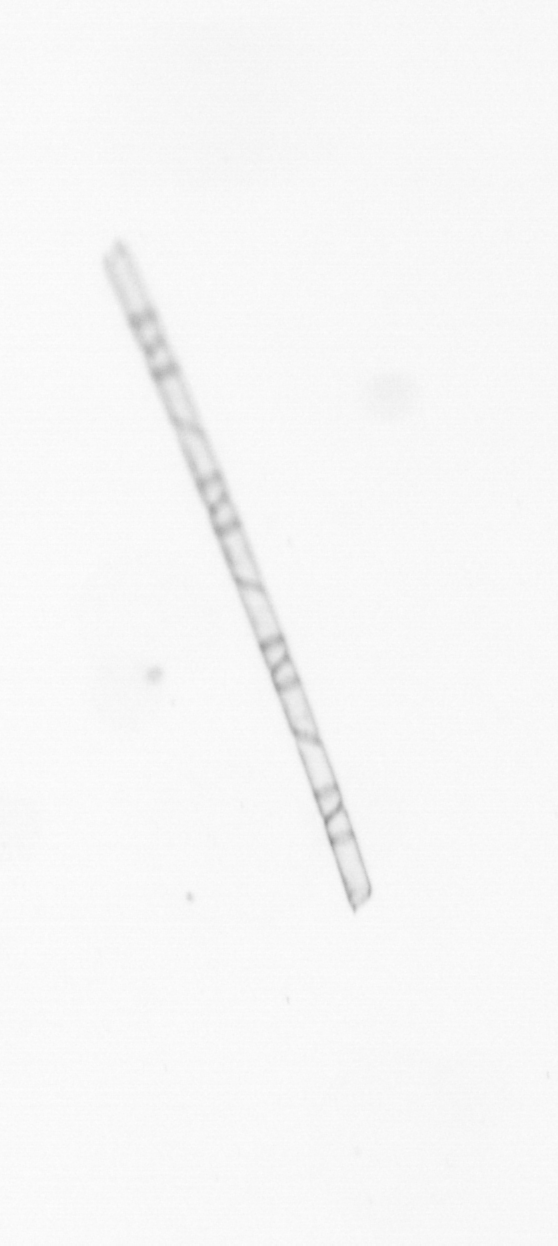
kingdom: Chromista
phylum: Ochrophyta
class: Bacillariophyceae
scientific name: Bacillariophyceae
